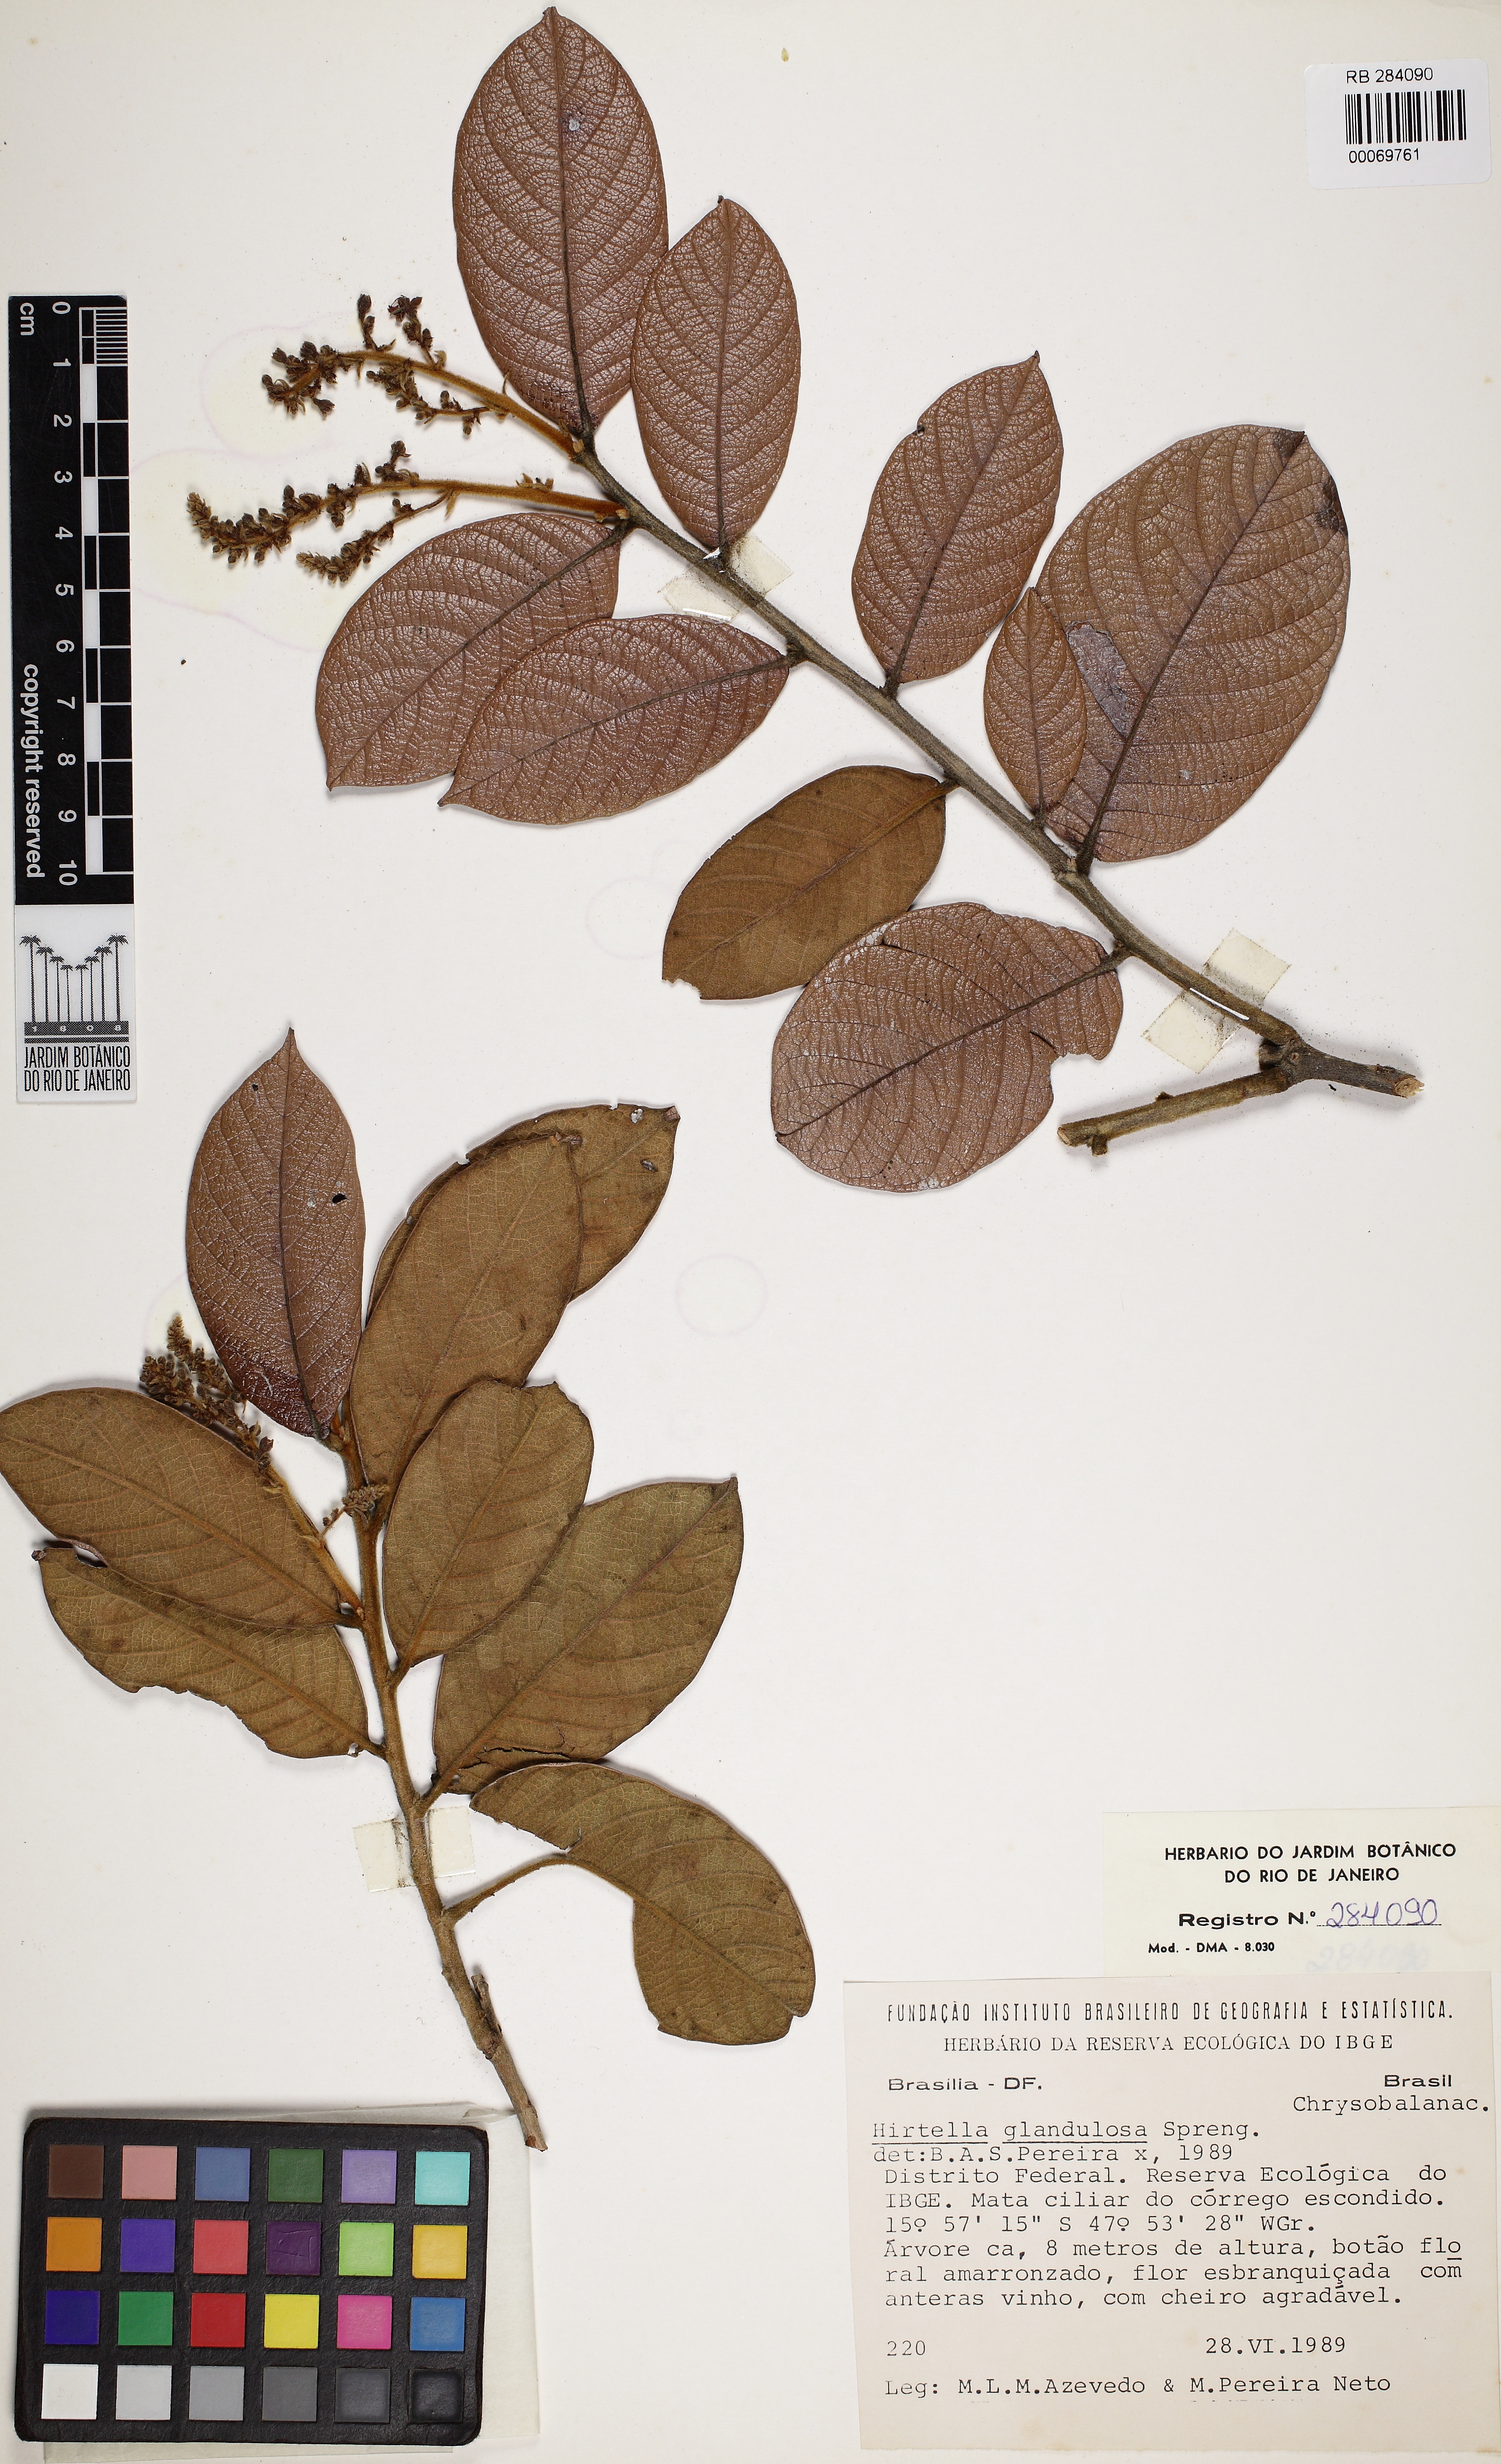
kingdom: Plantae
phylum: Tracheophyta
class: Magnoliopsida
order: Malpighiales
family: Chrysobalanaceae
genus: Hirtella
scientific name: Hirtella glandulosa
